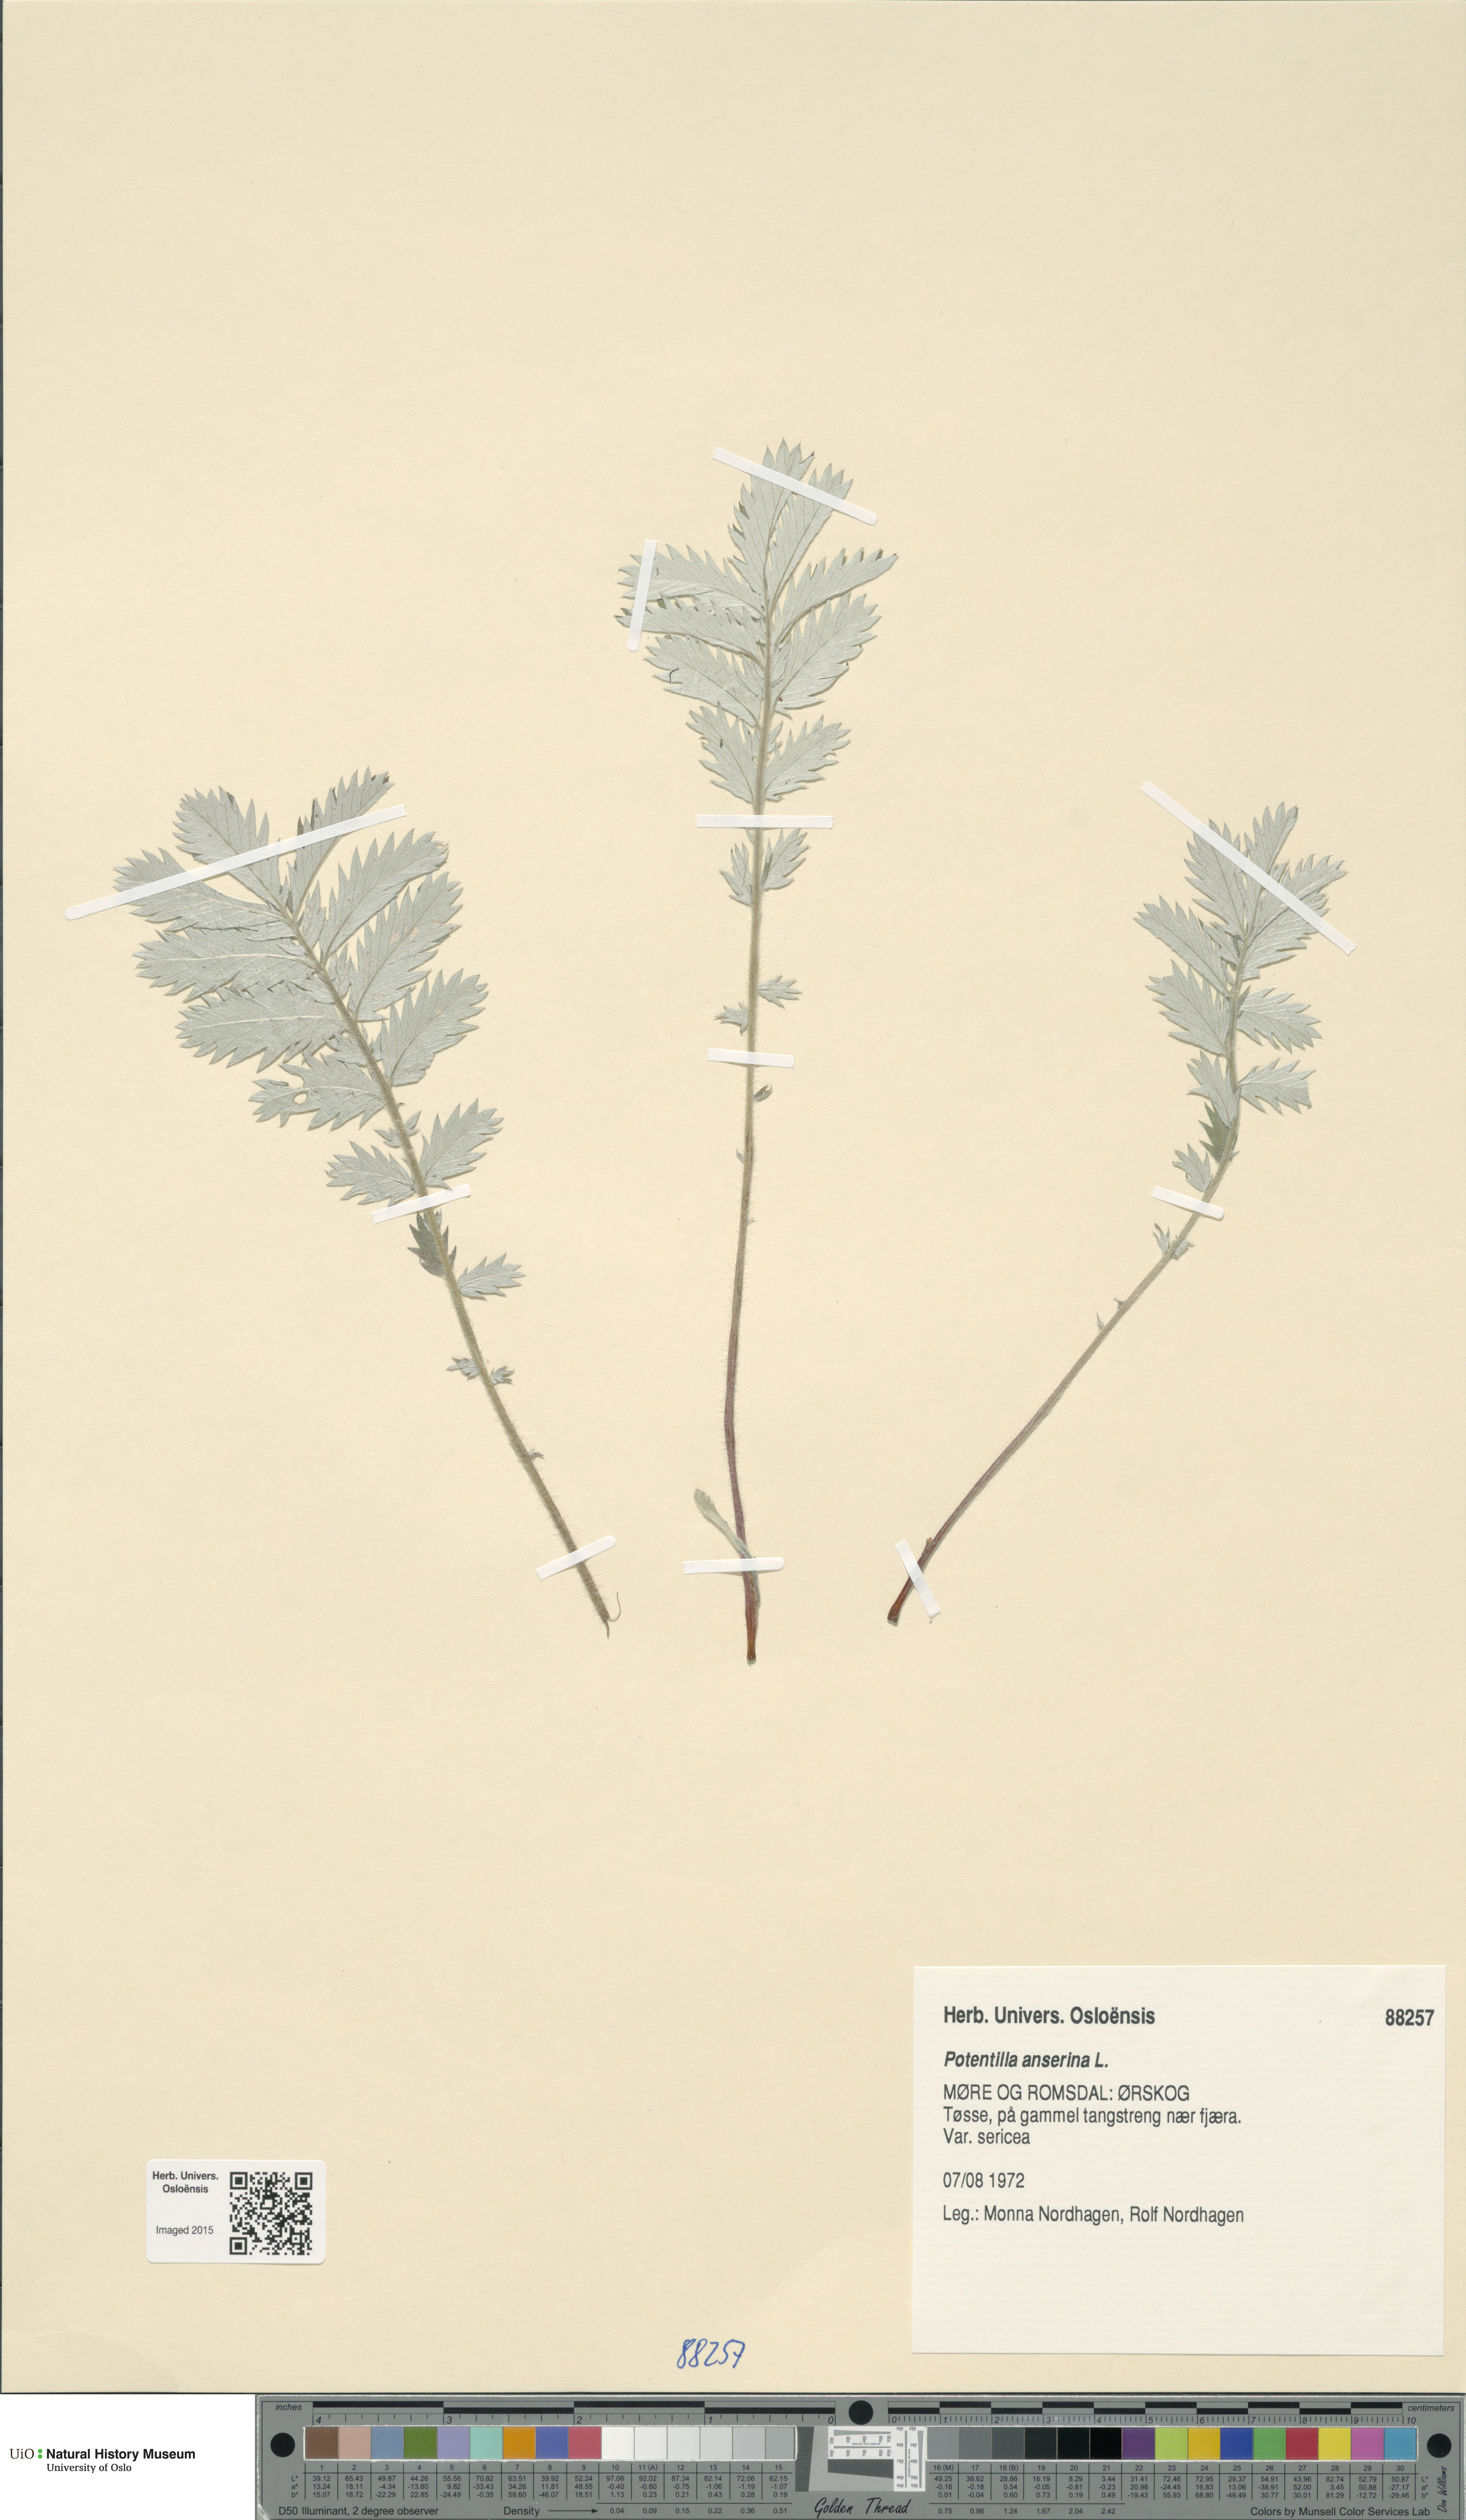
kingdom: Plantae
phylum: Tracheophyta
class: Magnoliopsida
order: Rosales
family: Rosaceae
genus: Argentina
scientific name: Argentina anserina
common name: Common silverweed
